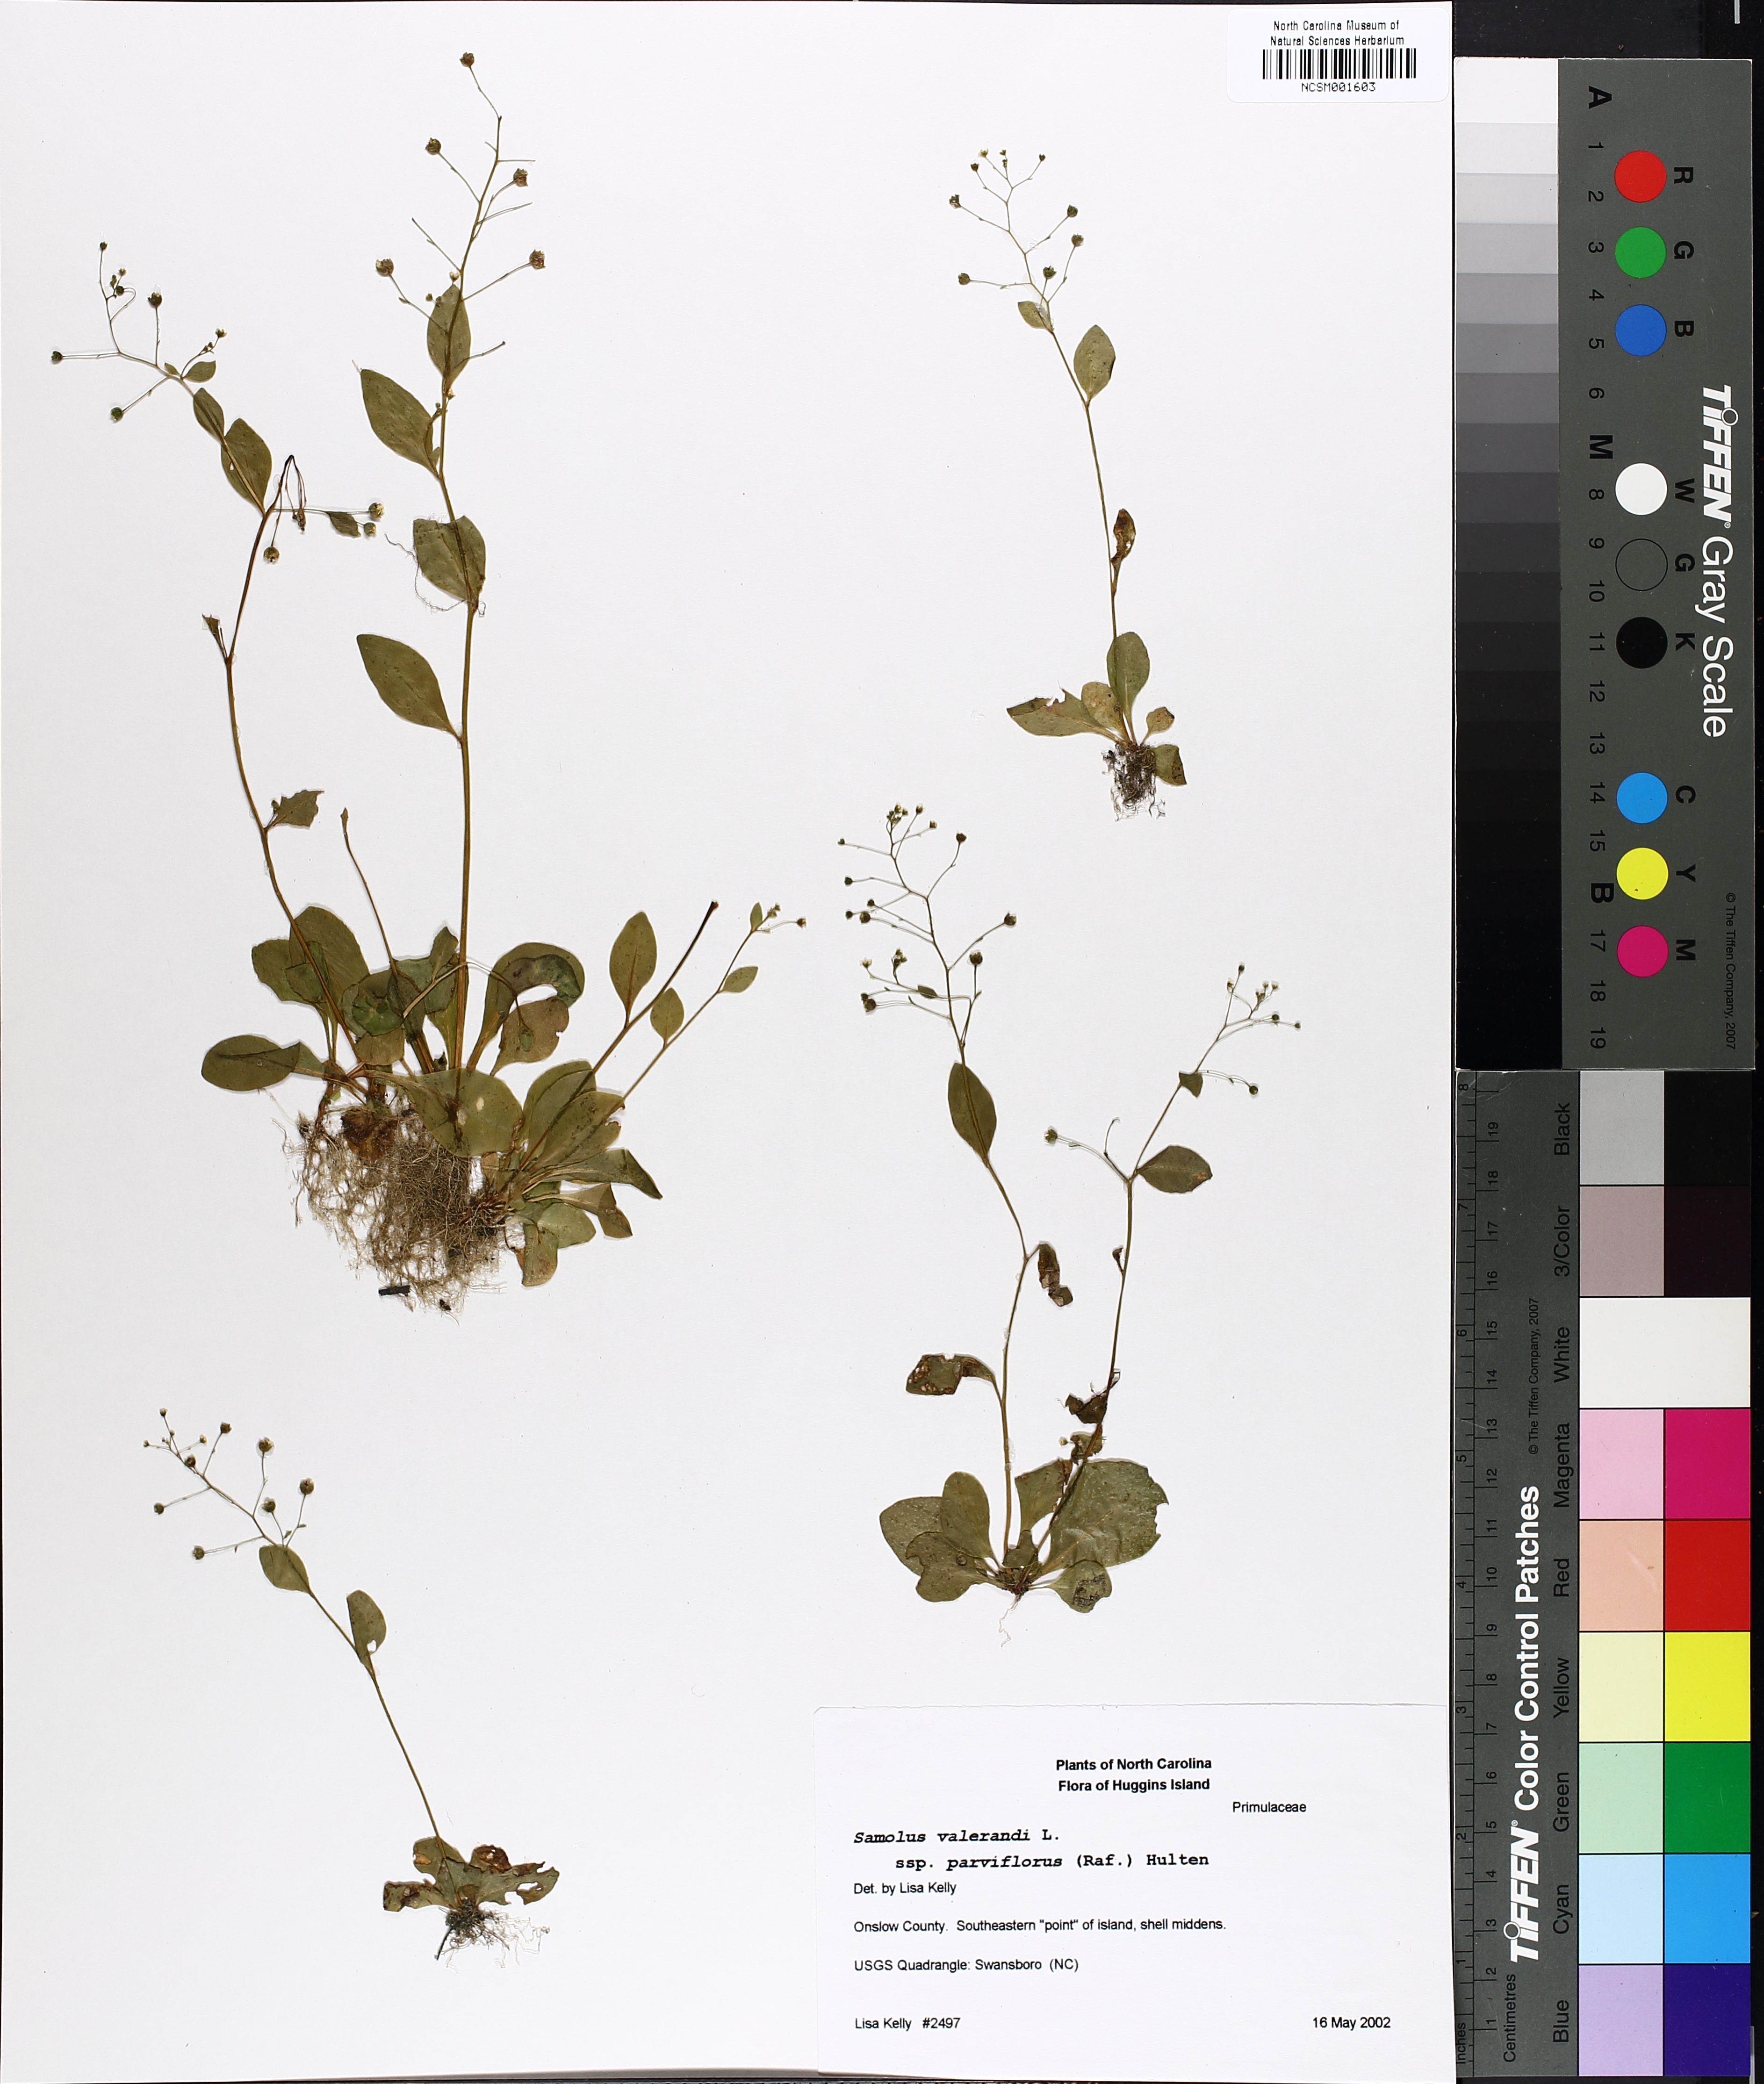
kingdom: Plantae
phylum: Tracheophyta
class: Magnoliopsida
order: Ericales
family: Primulaceae
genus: Samolus
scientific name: Samolus parviflorus
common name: False water pimpernel
